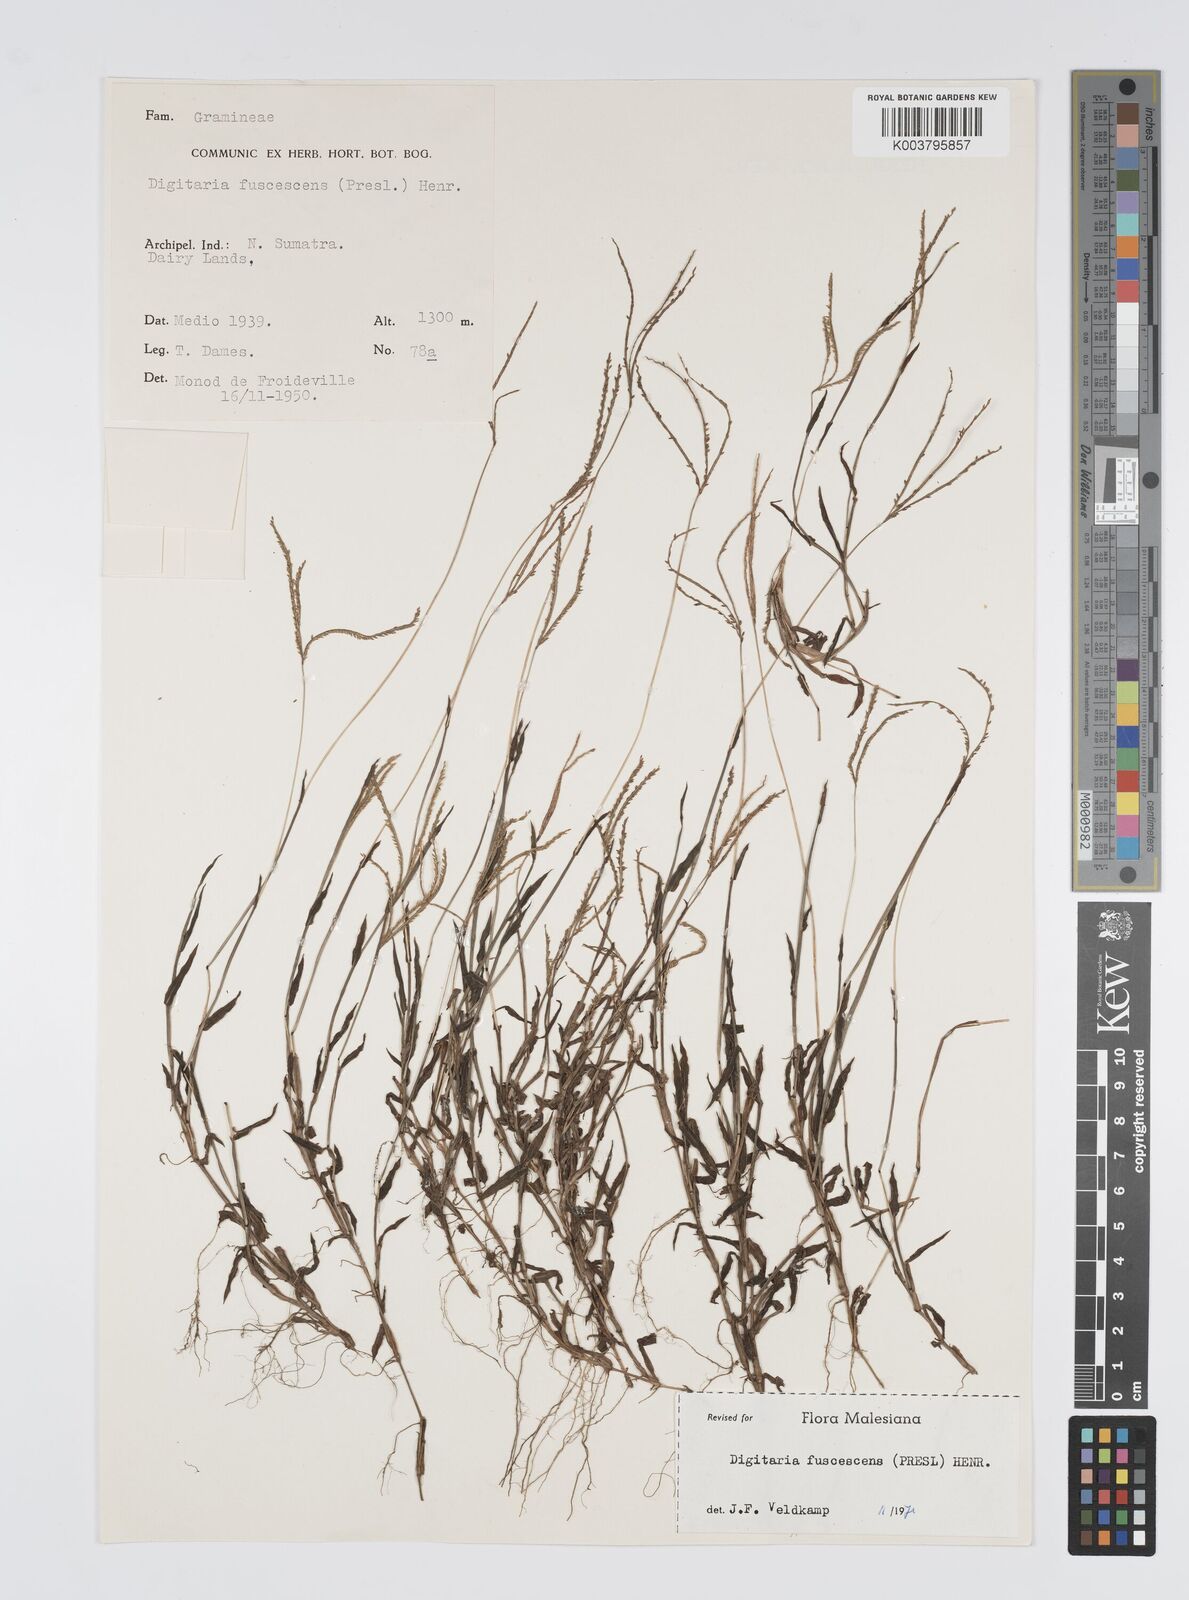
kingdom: Plantae
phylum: Tracheophyta
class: Liliopsida
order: Poales
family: Poaceae
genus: Digitaria
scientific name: Digitaria fuscescens
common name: Yellow crabgrass
